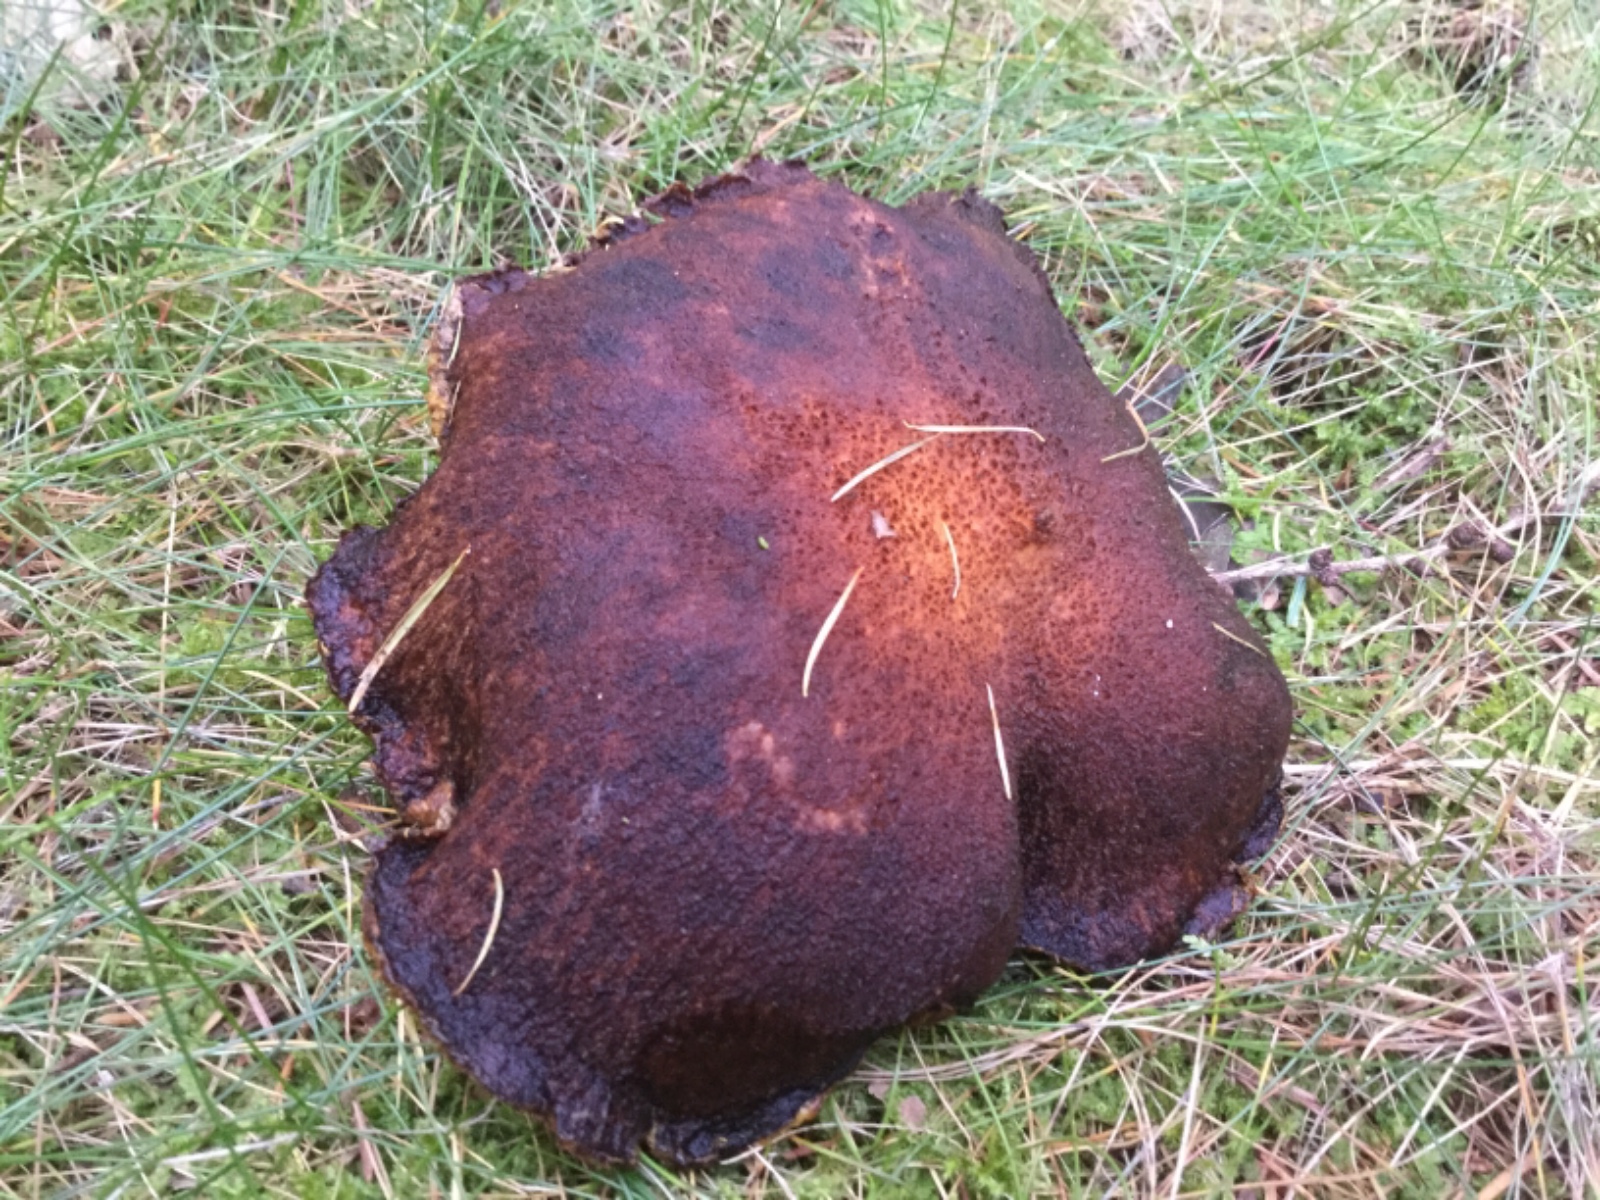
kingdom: Fungi
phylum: Basidiomycota
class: Agaricomycetes
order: Boletales
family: Suillaceae
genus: Suillus
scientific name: Suillus cavipes
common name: hulstokket slimrørhat
